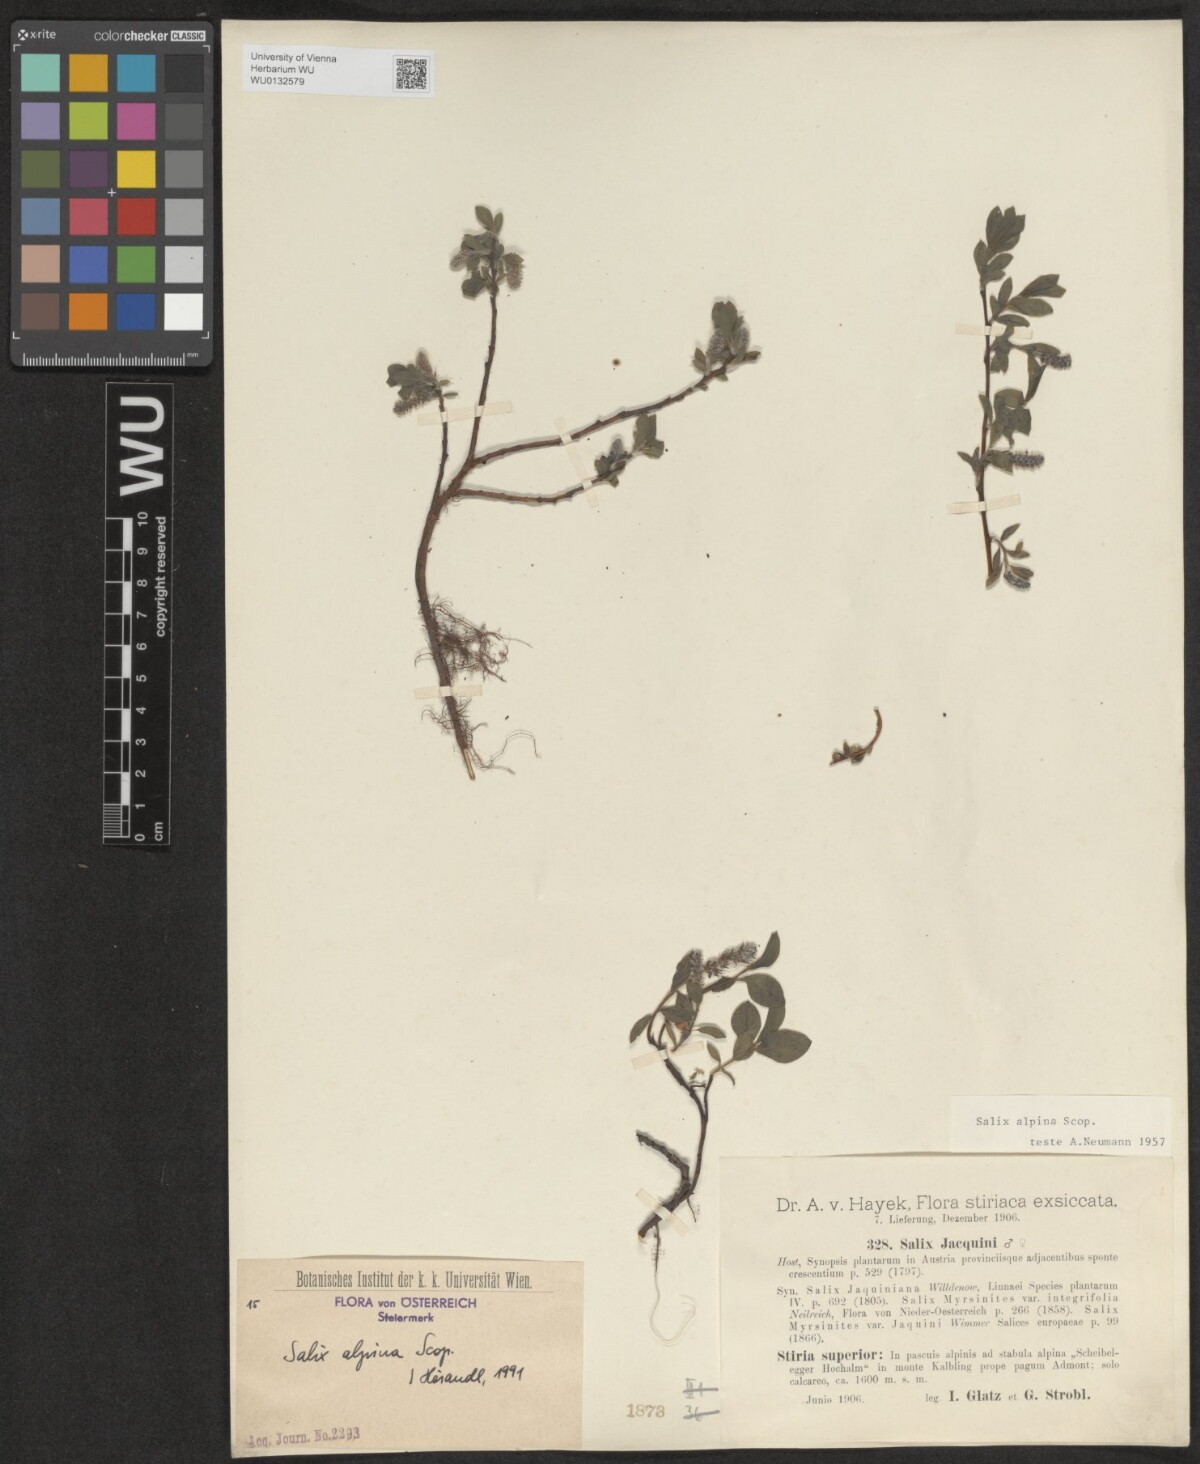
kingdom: Plantae
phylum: Tracheophyta
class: Magnoliopsida
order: Malpighiales
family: Salicaceae
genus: Salix
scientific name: Salix alpina
